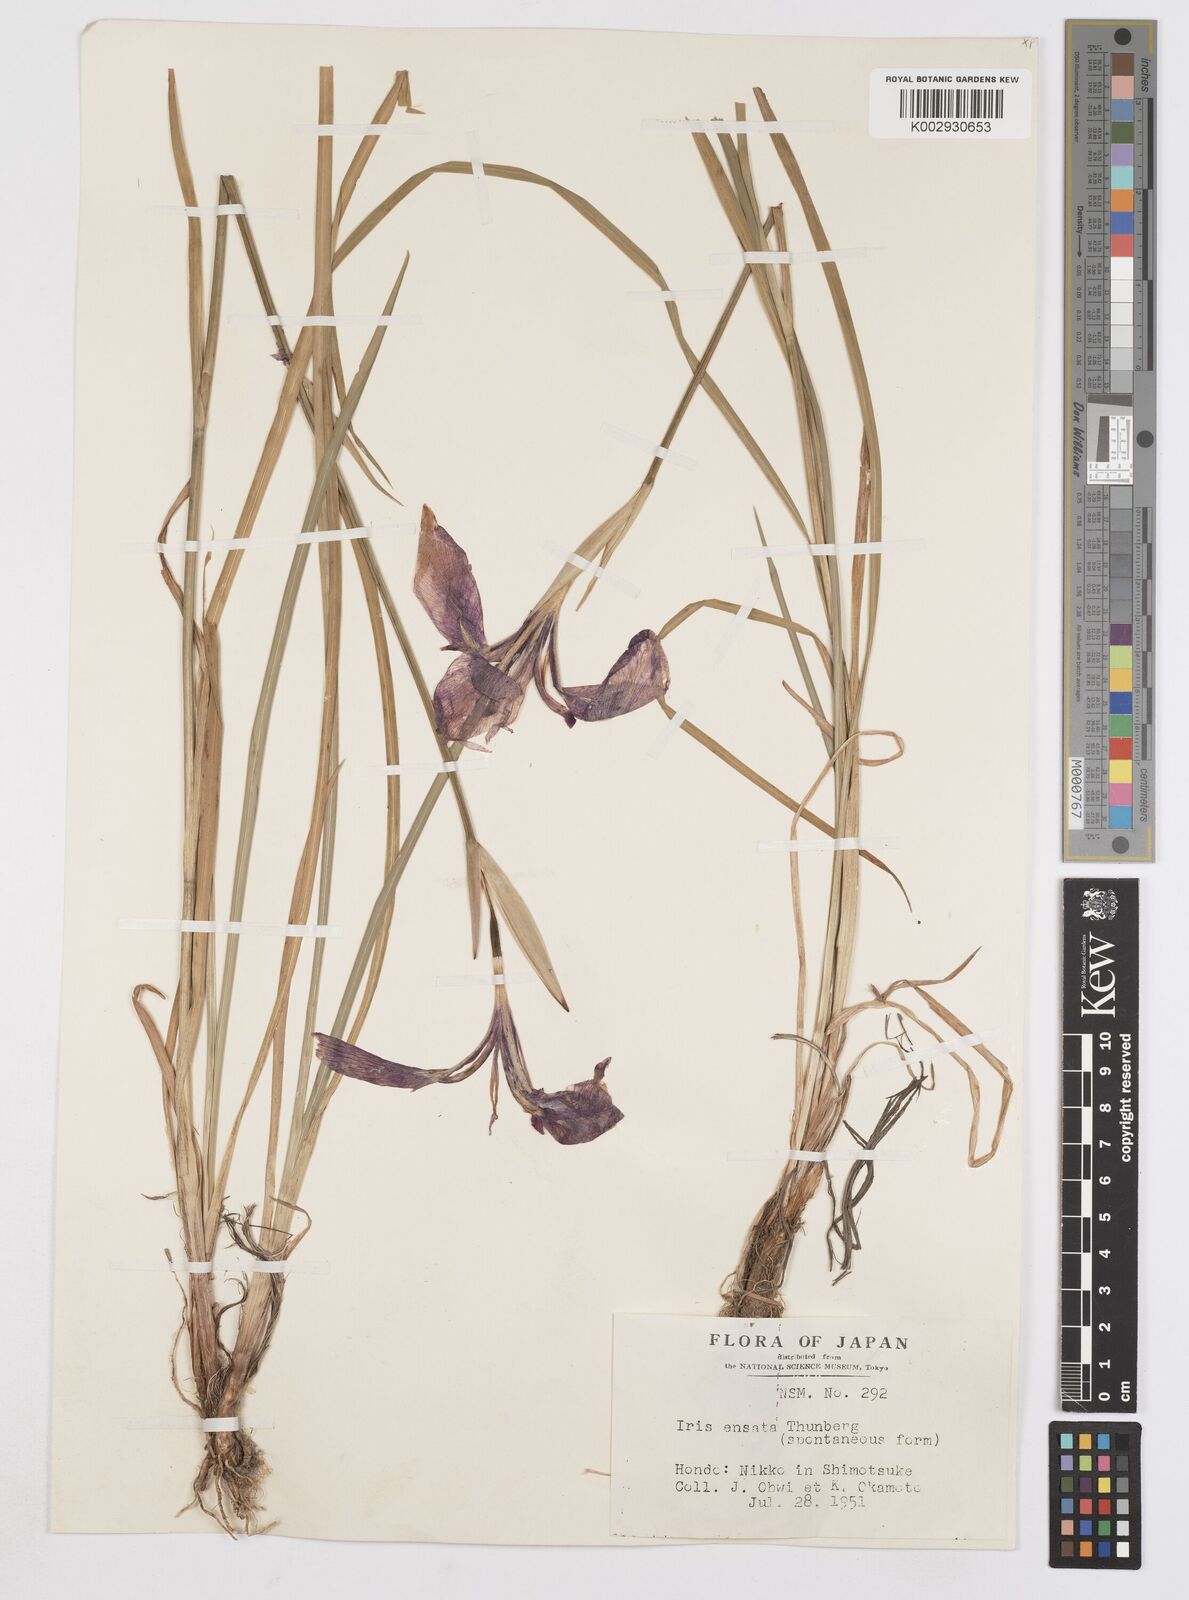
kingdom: Plantae
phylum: Tracheophyta
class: Liliopsida
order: Asparagales
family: Iridaceae
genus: Iris
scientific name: Iris ensata
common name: Beaked iris
